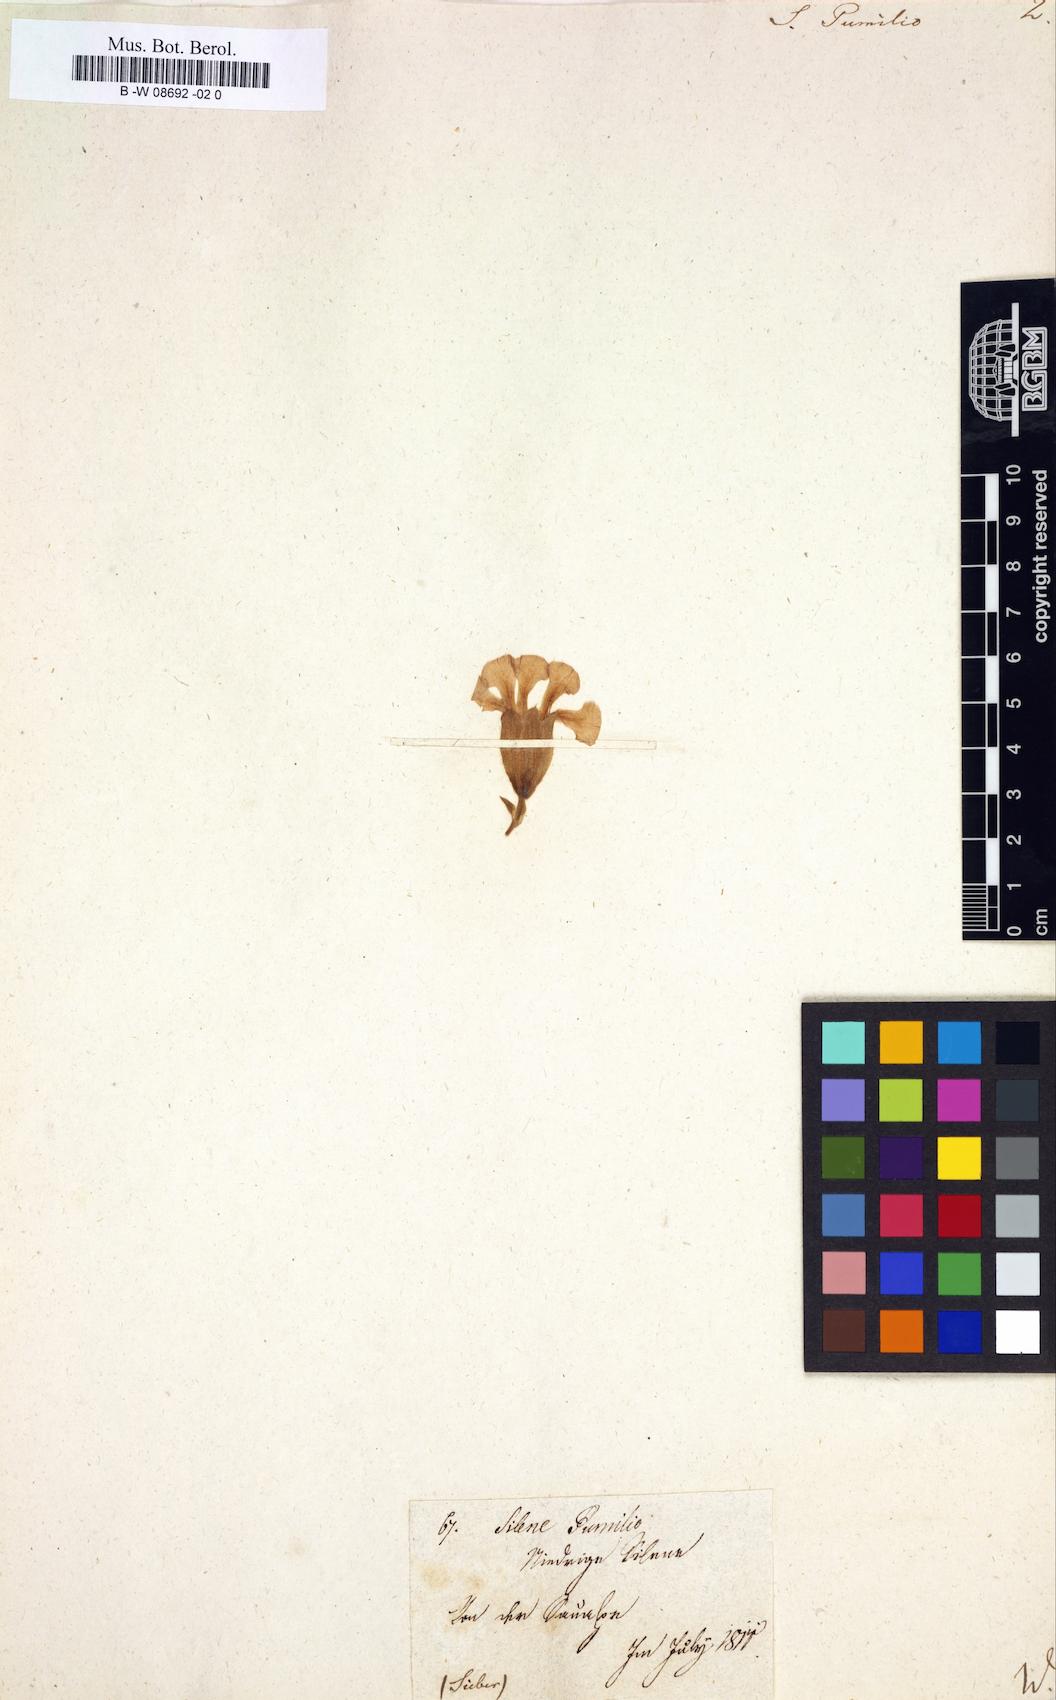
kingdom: Plantae
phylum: Tracheophyta
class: Magnoliopsida
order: Caryophyllales
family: Caryophyllaceae
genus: Saponaria
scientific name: Saponaria pumila
